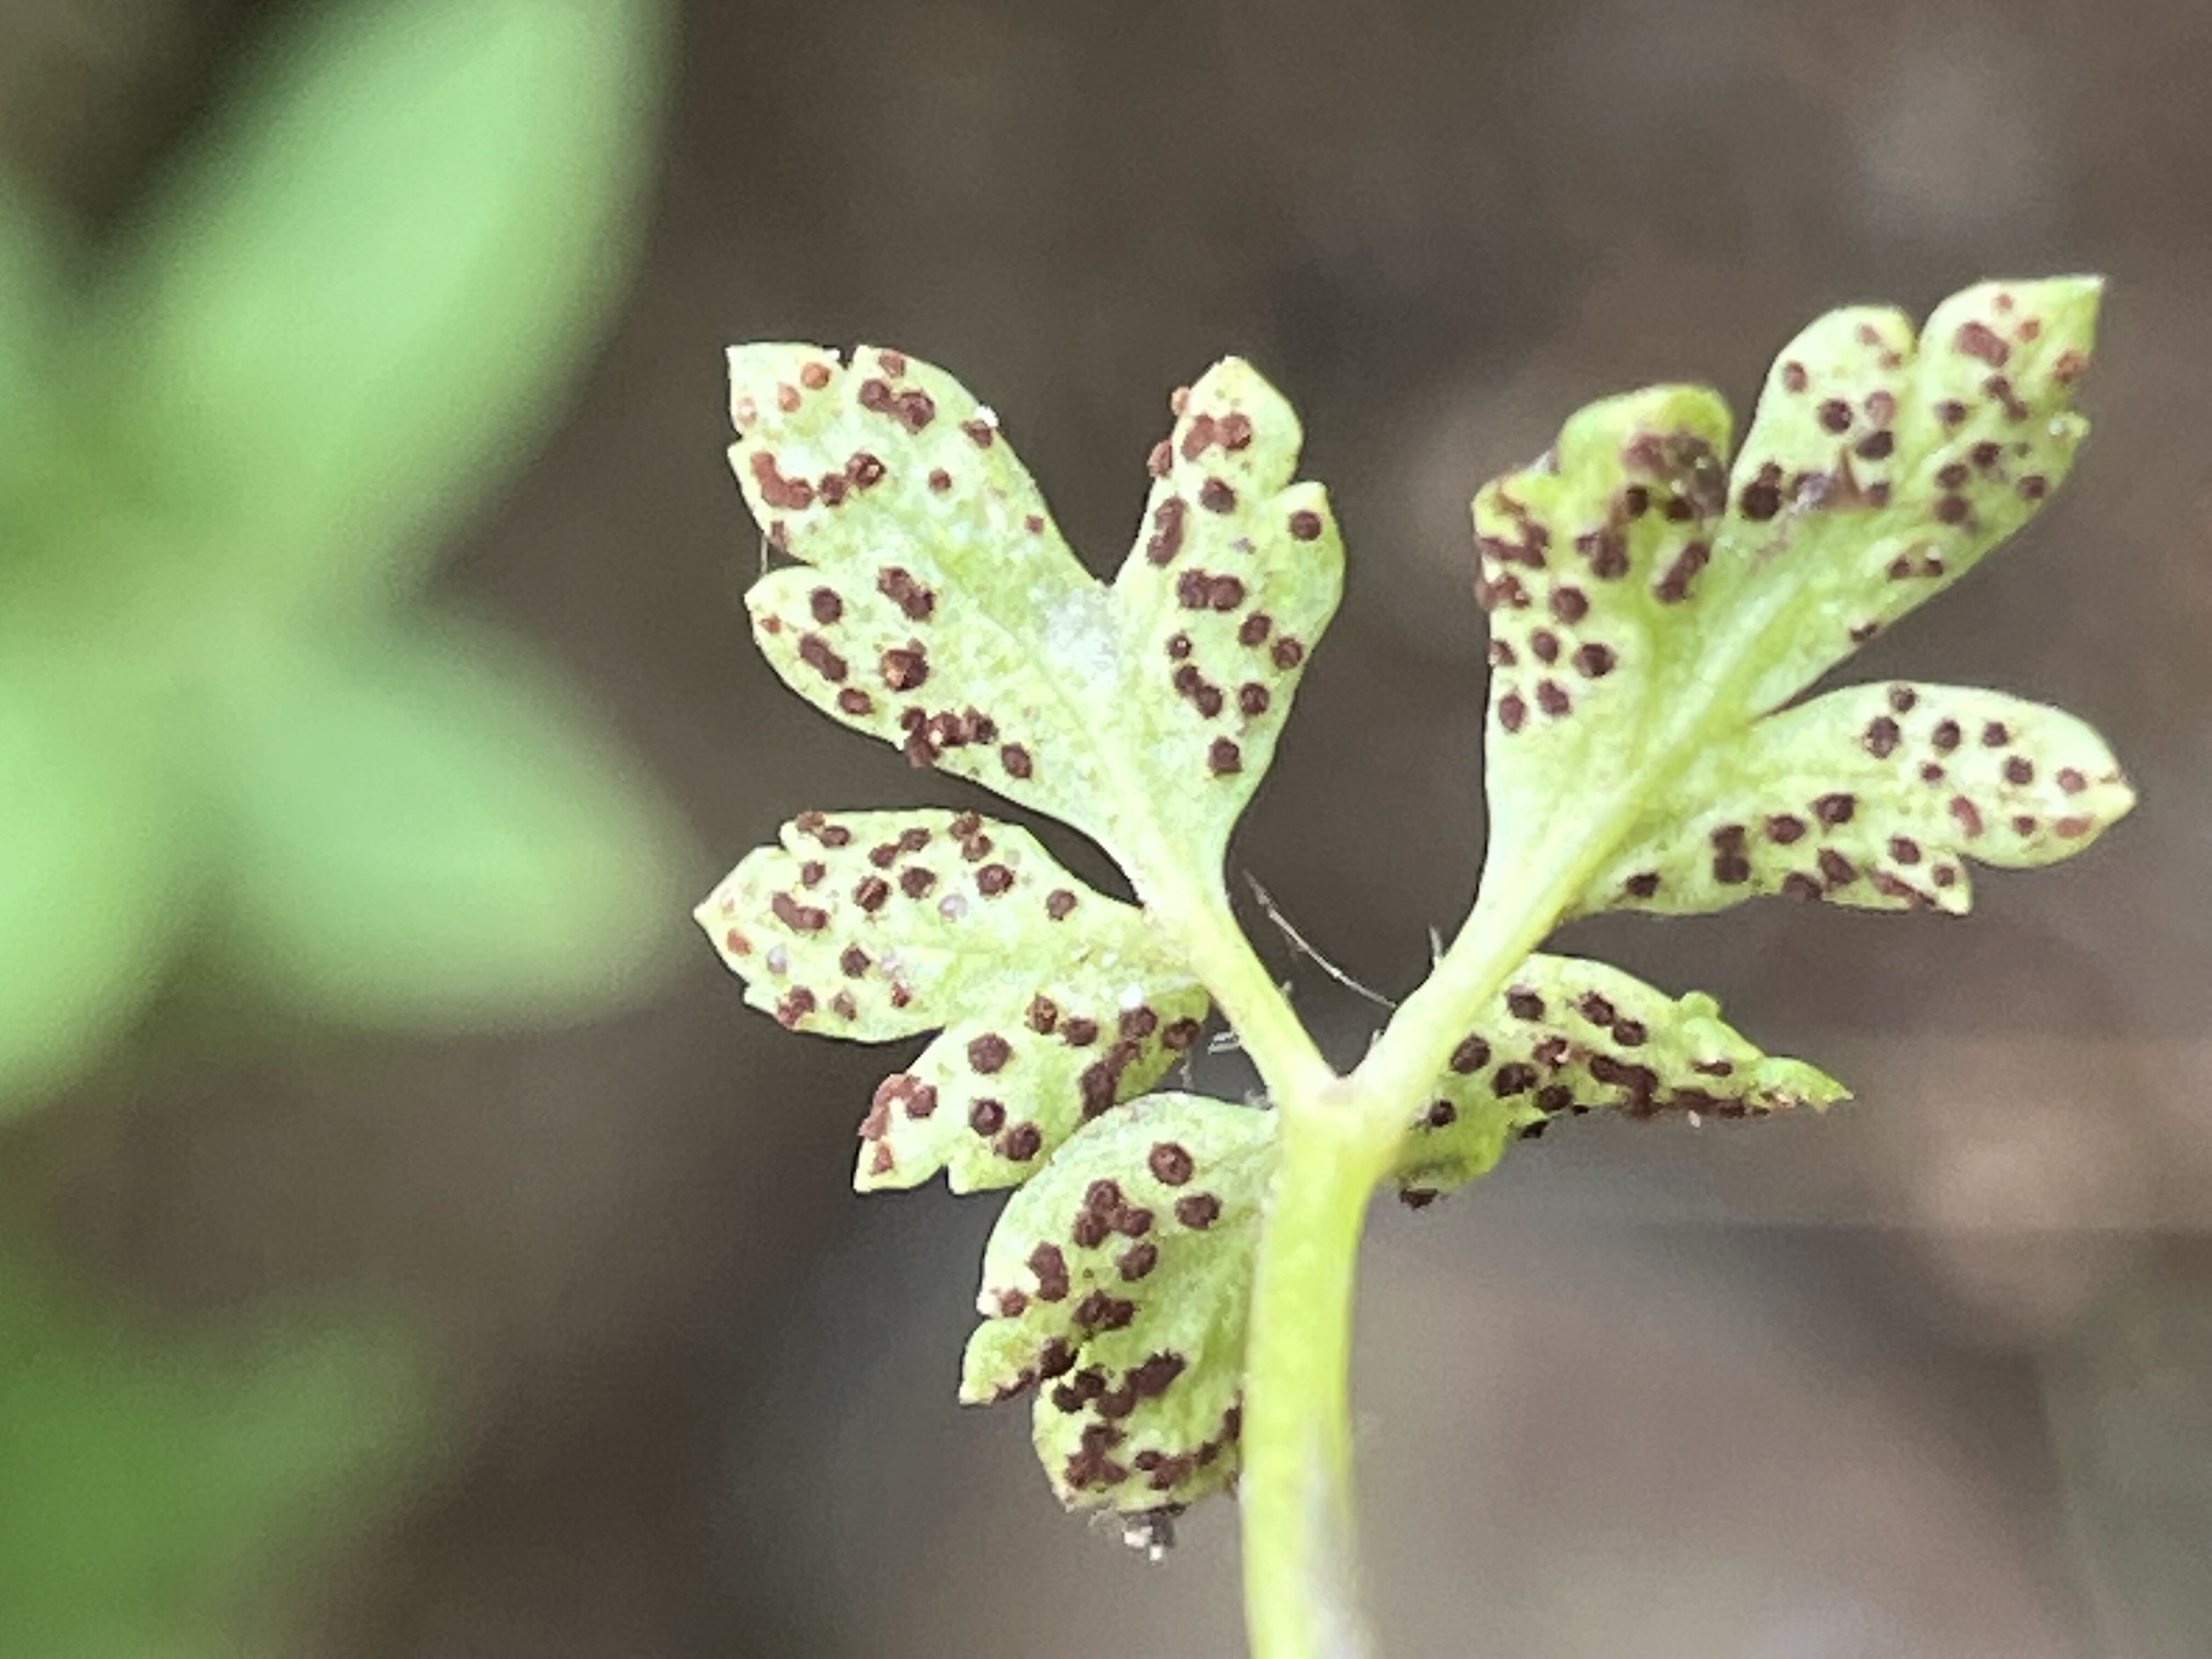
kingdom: Fungi
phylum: Basidiomycota
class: Pucciniomycetes
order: Pucciniales
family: Tranzscheliaceae
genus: Tranzschelia
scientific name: Tranzschelia anemones
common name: anemone-knæksporerust
